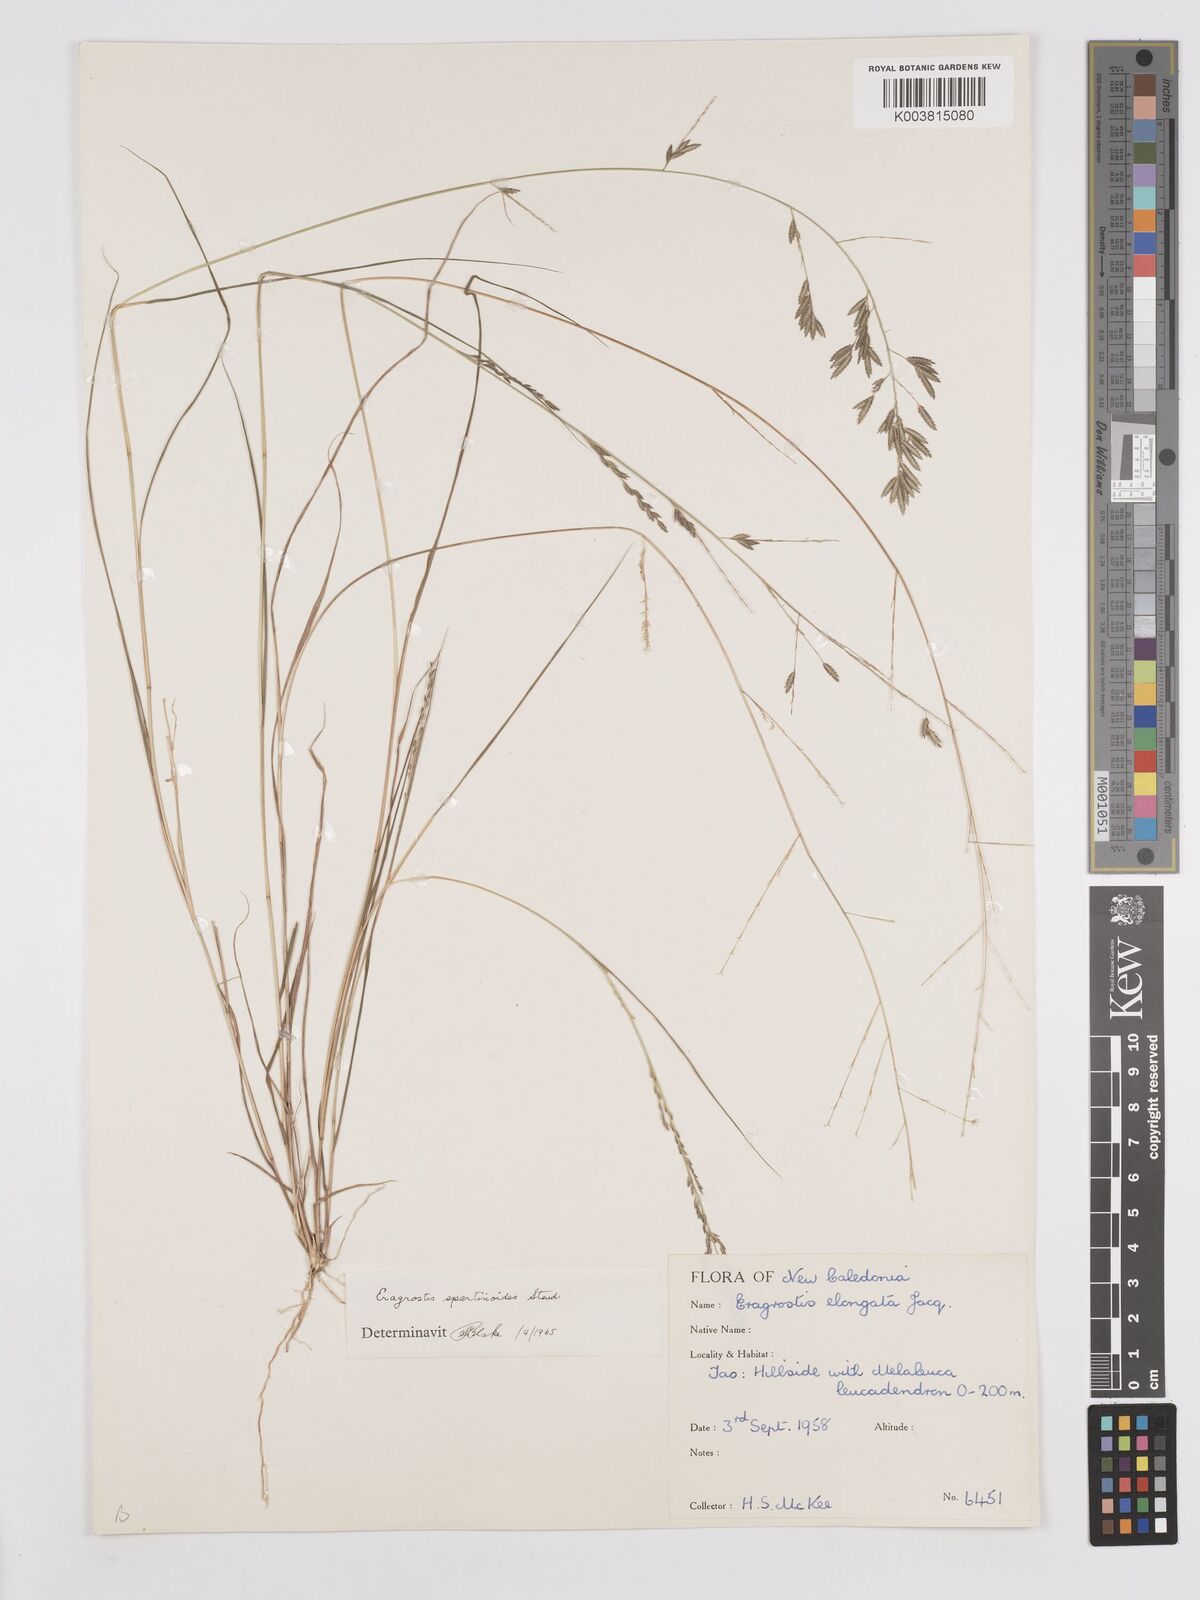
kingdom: Plantae
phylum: Tracheophyta
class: Liliopsida
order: Poales
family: Poaceae
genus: Eragrostis
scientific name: Eragrostis brownii
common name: Lovegrass
